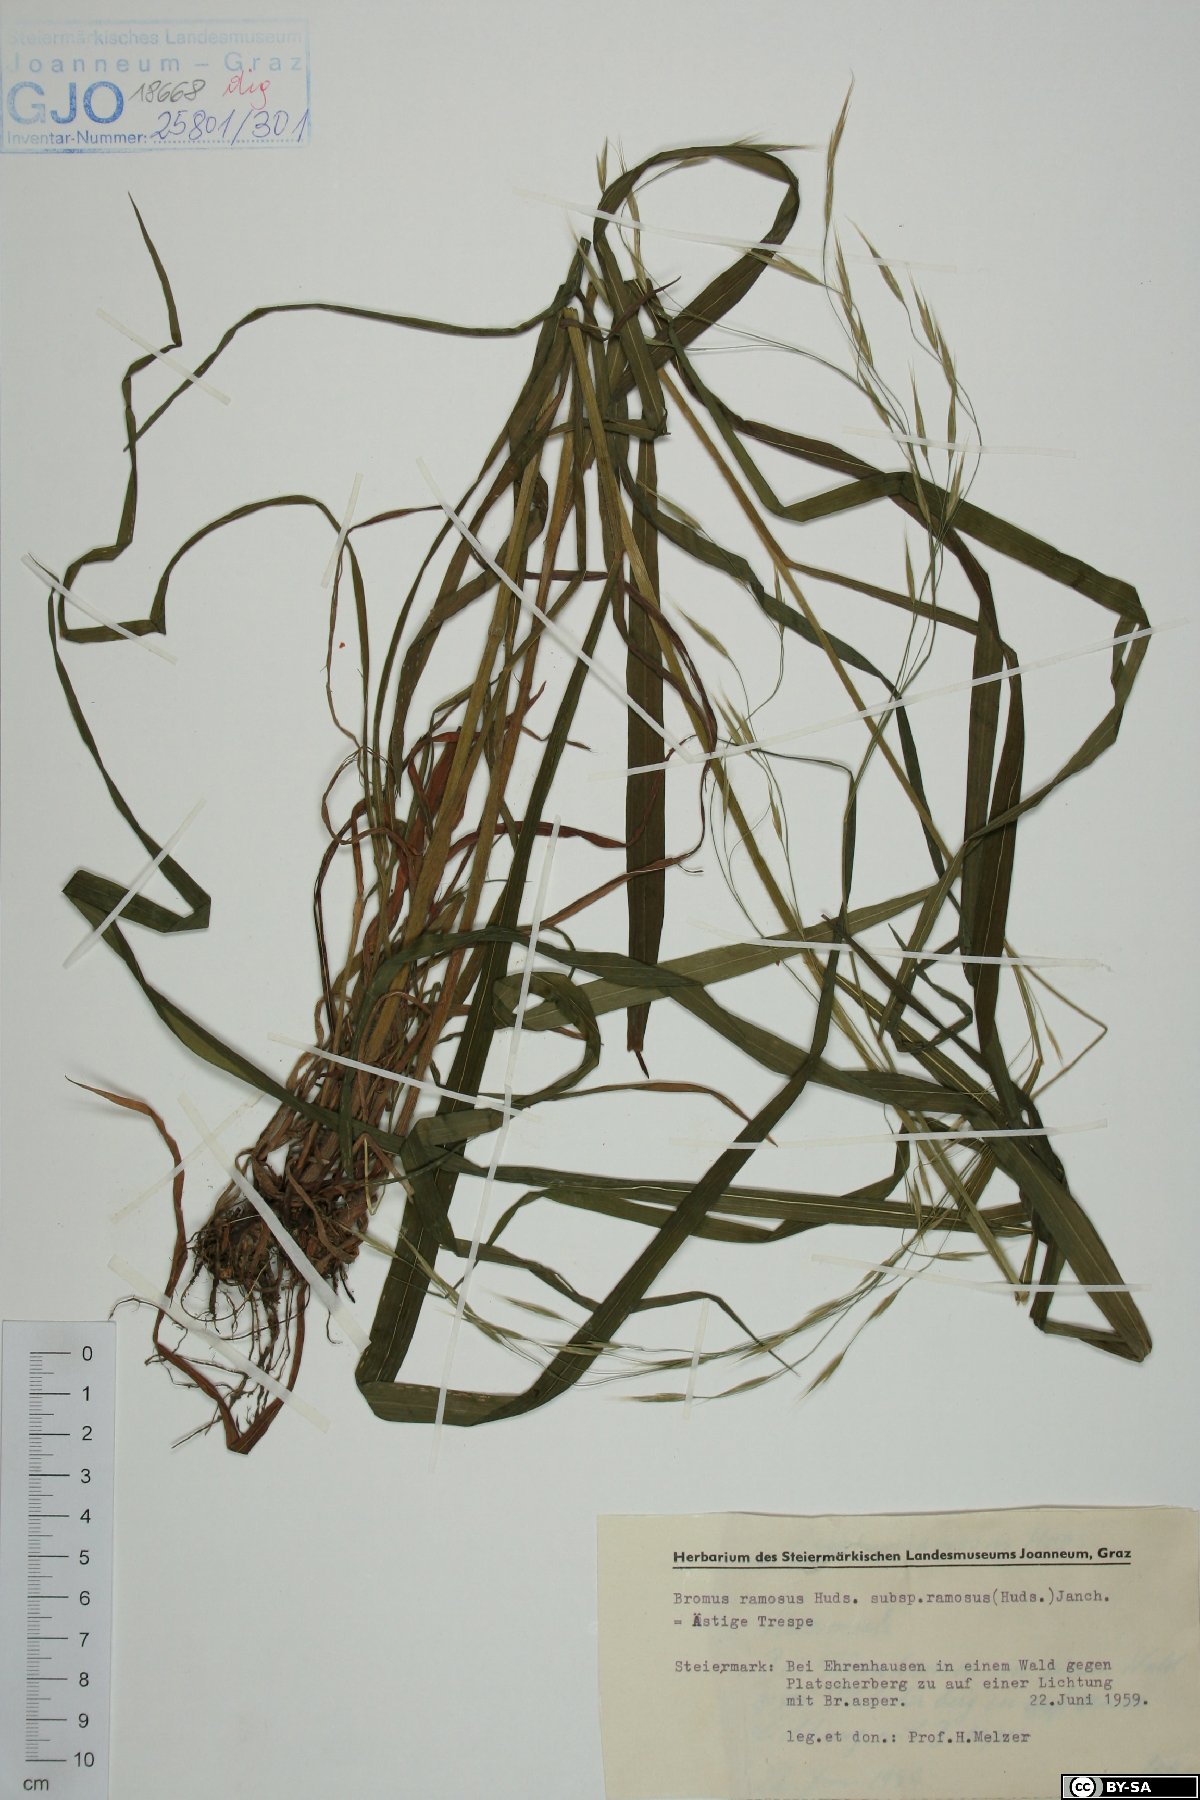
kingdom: Plantae
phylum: Tracheophyta
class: Liliopsida
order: Poales
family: Poaceae
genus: Bromus
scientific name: Bromus ramosus
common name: Hairy brome
